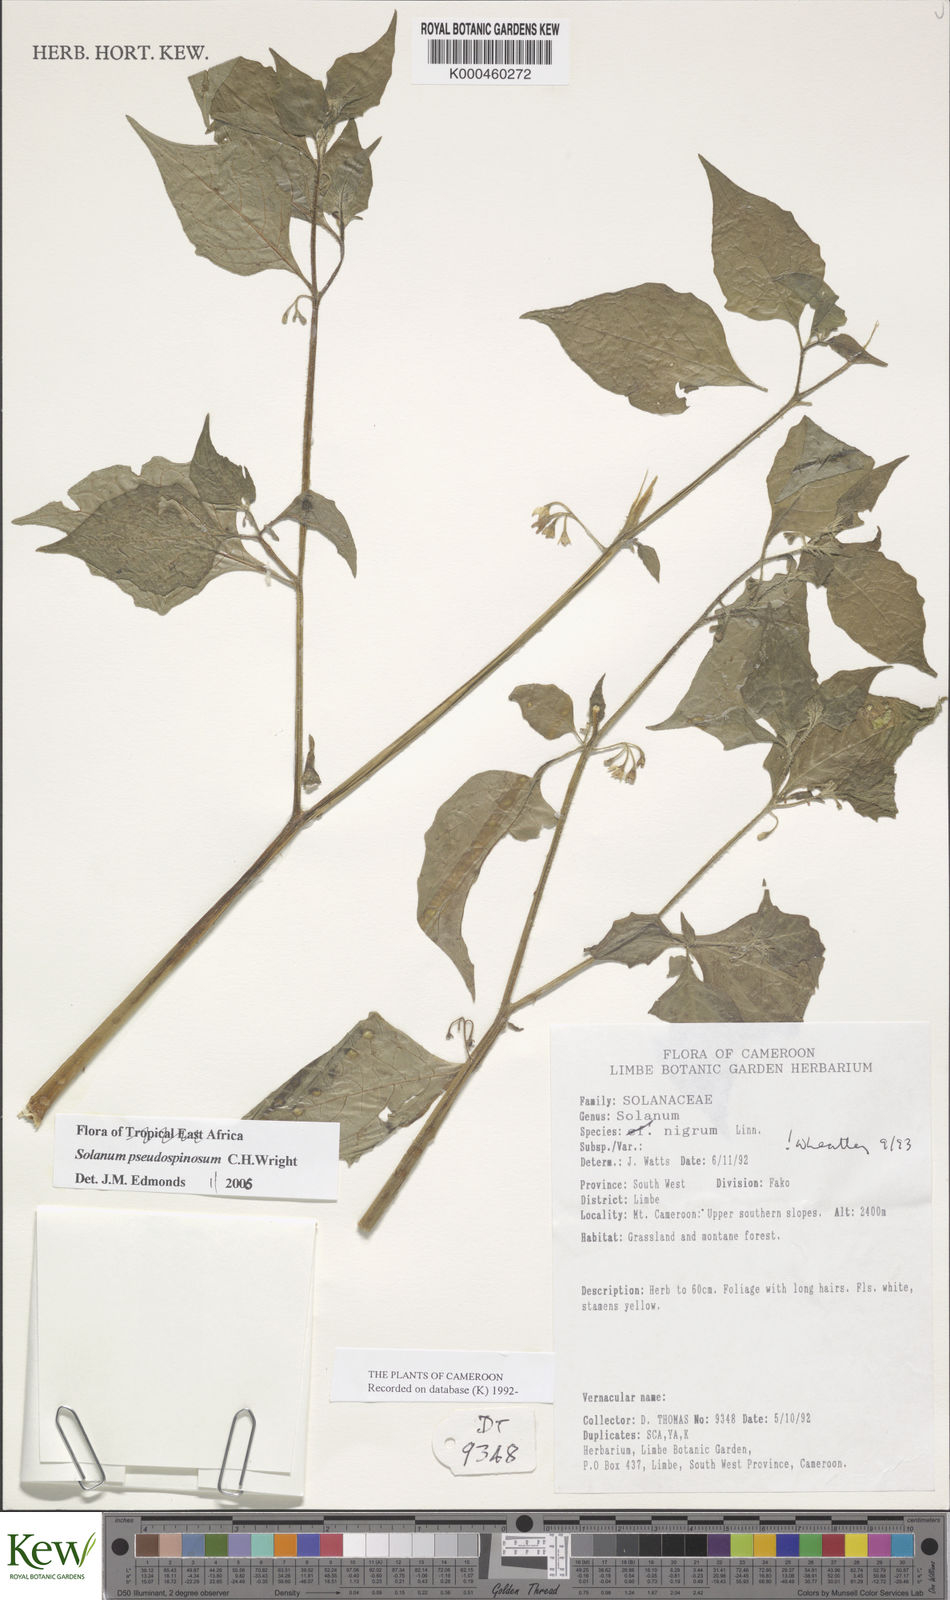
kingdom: Plantae
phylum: Tracheophyta
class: Magnoliopsida
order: Solanales
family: Solanaceae
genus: Solanum
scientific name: Solanum pseudospinosum
